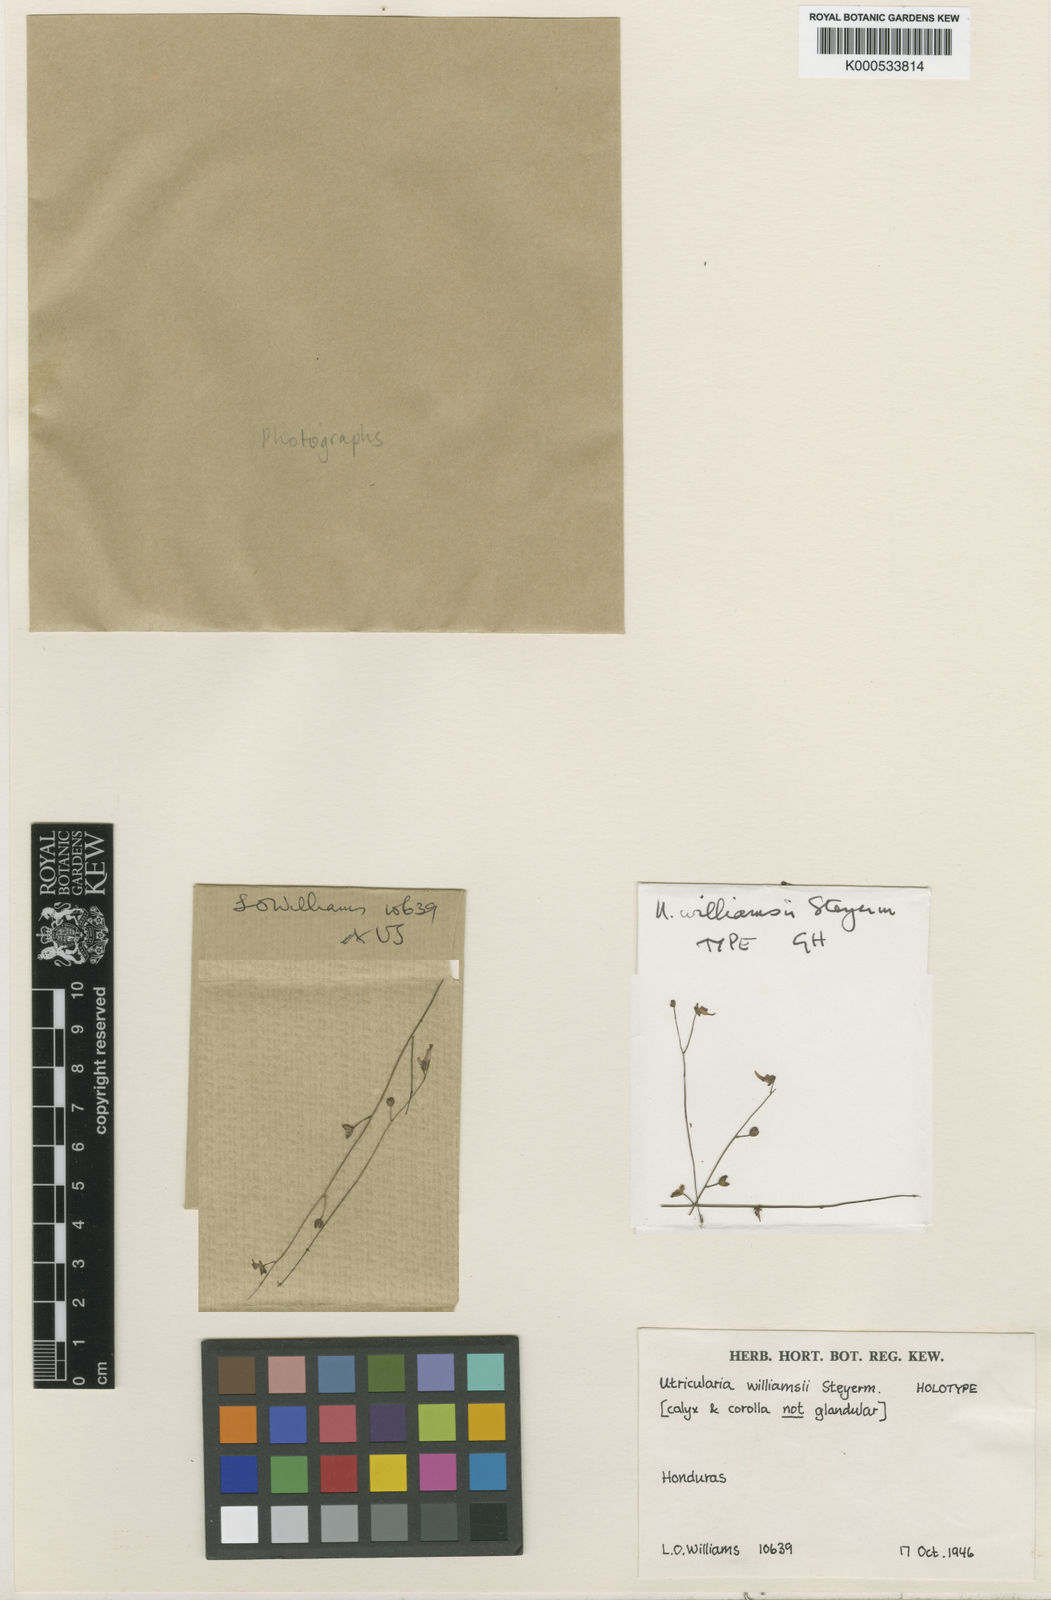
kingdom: Plantae
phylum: Tracheophyta
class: Magnoliopsida
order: Lamiales
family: Lentibulariaceae
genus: Utricularia
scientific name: Utricularia amethystina
